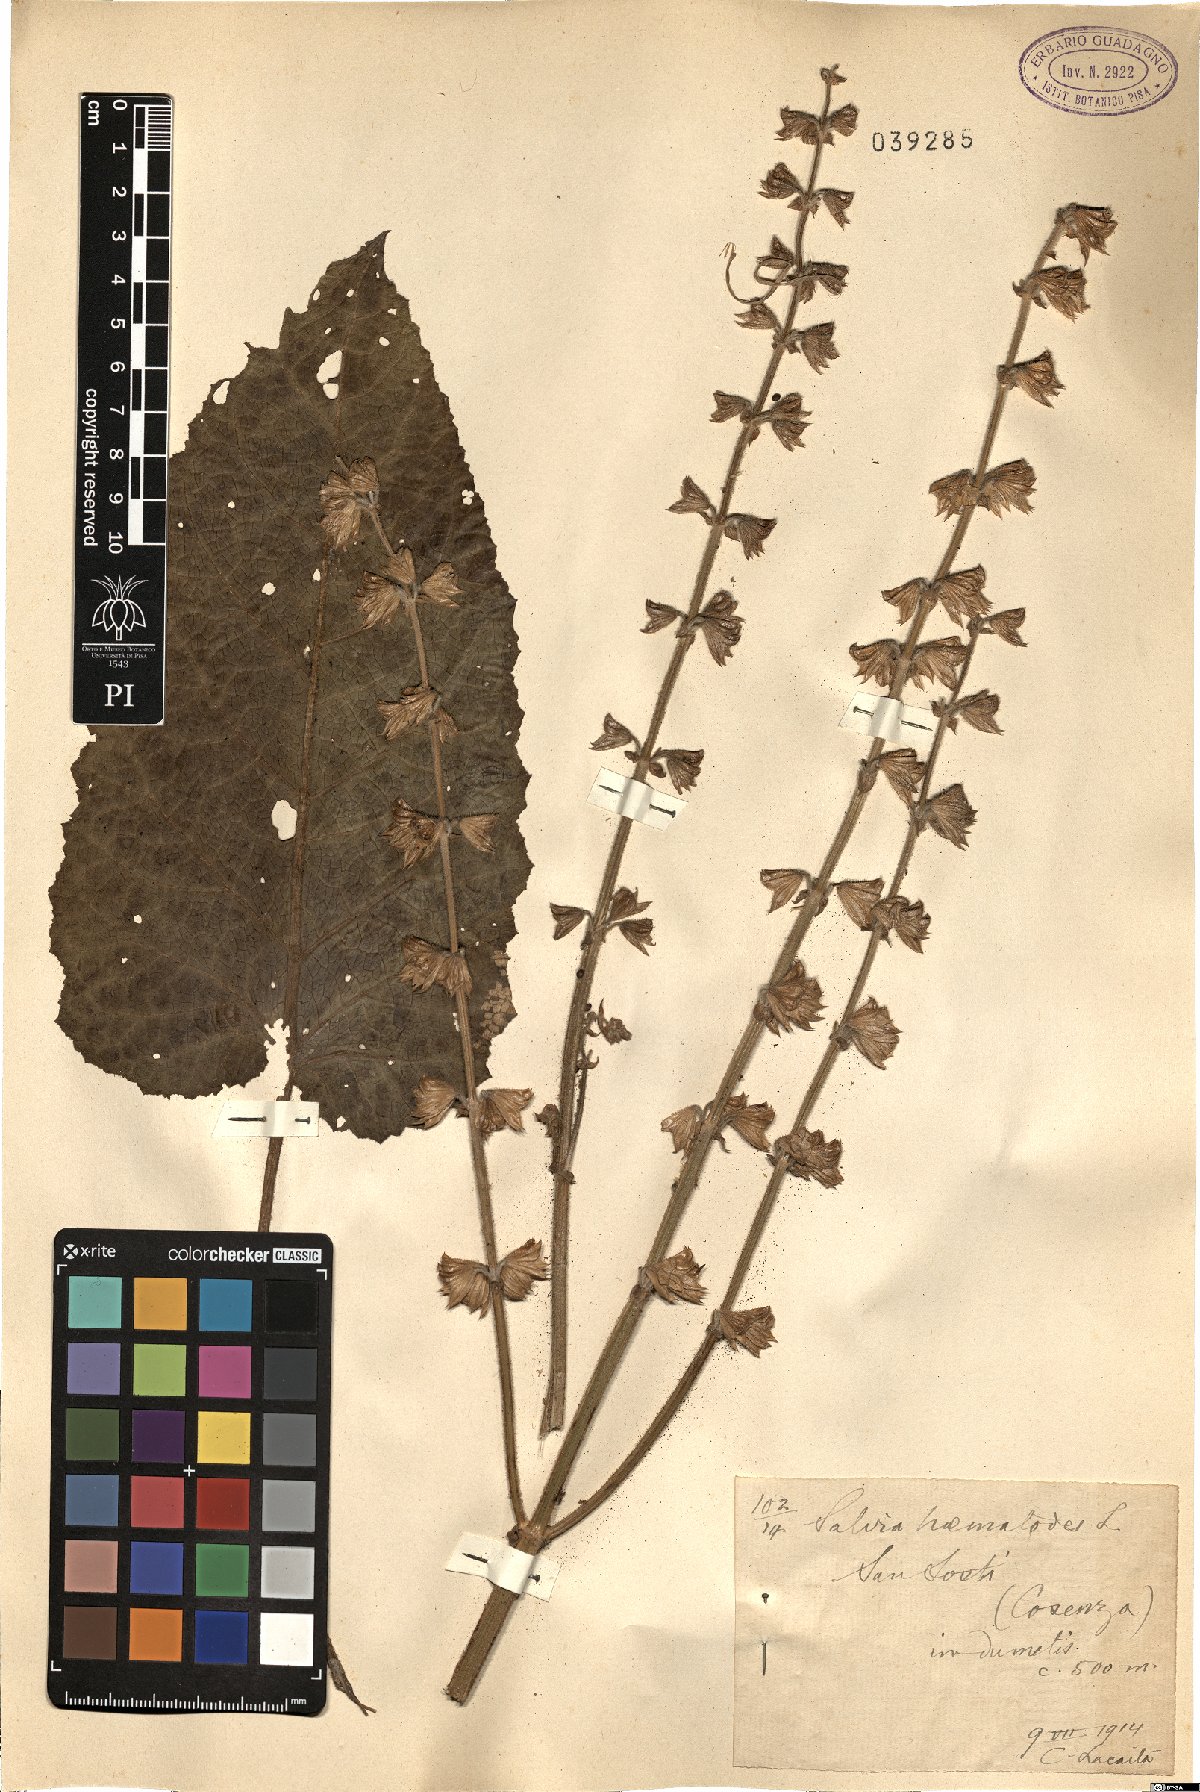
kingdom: Plantae
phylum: Tracheophyta
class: Magnoliopsida
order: Lamiales
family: Lamiaceae
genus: Salvia
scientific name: Salvia pratensis
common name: Meadow sage
